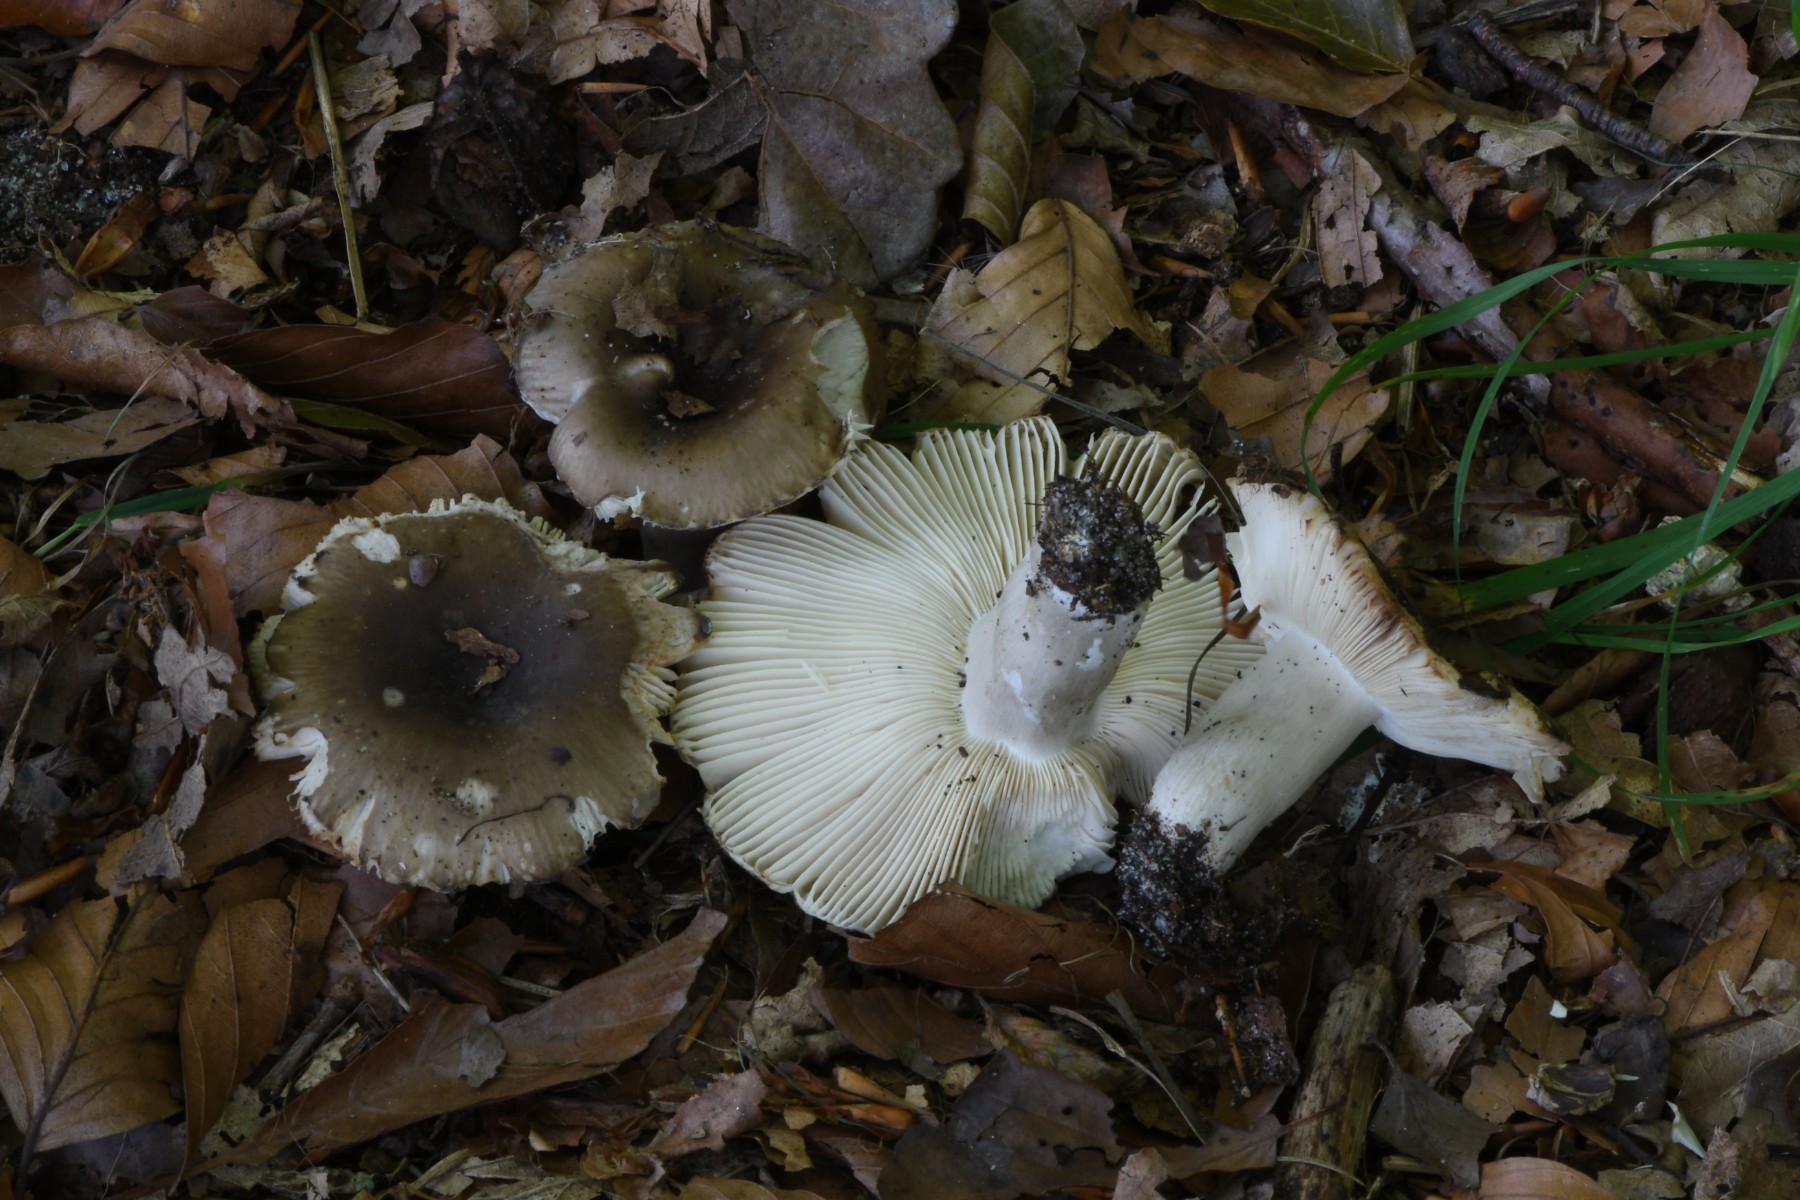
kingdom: Fungi
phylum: Basidiomycota
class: Agaricomycetes
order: Russulales
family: Russulaceae
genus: Russula
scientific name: Russula amoenolens
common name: skarp kam-skørhat
